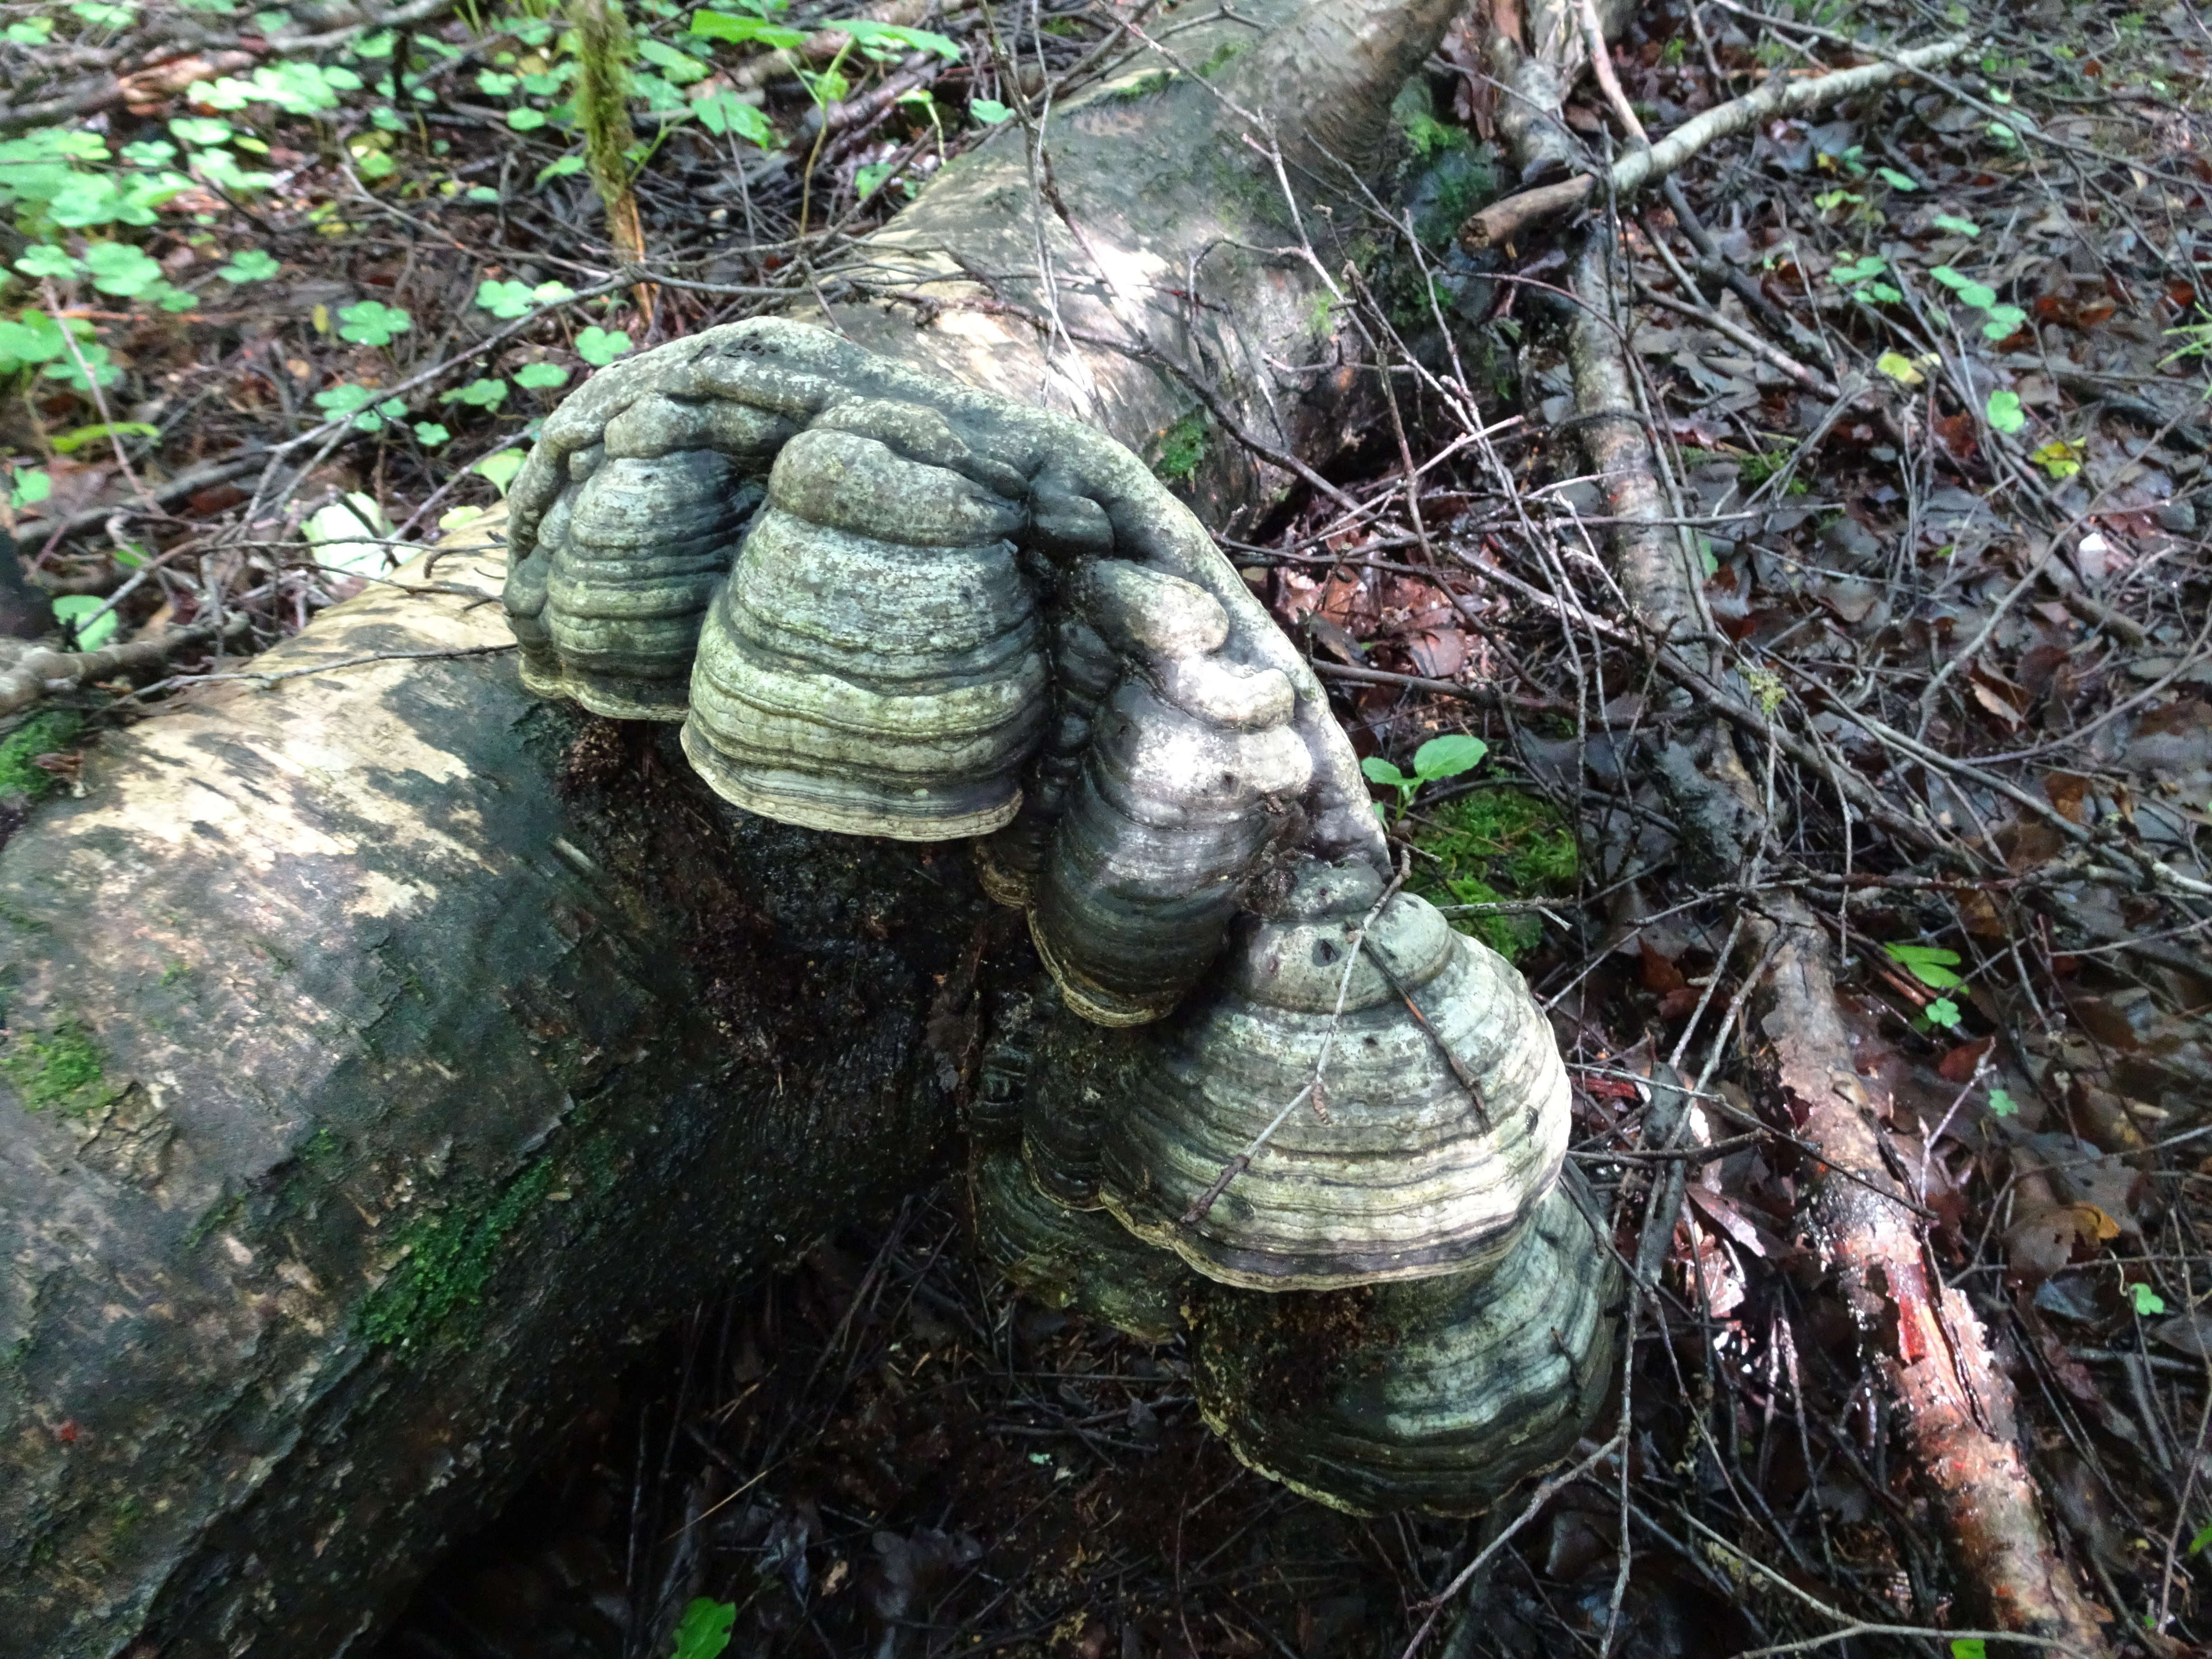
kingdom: Fungi
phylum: Basidiomycota
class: Agaricomycetes
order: Polyporales
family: Polyporaceae
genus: Fomes
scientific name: Fomes fomentarius
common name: Hoof fungus
